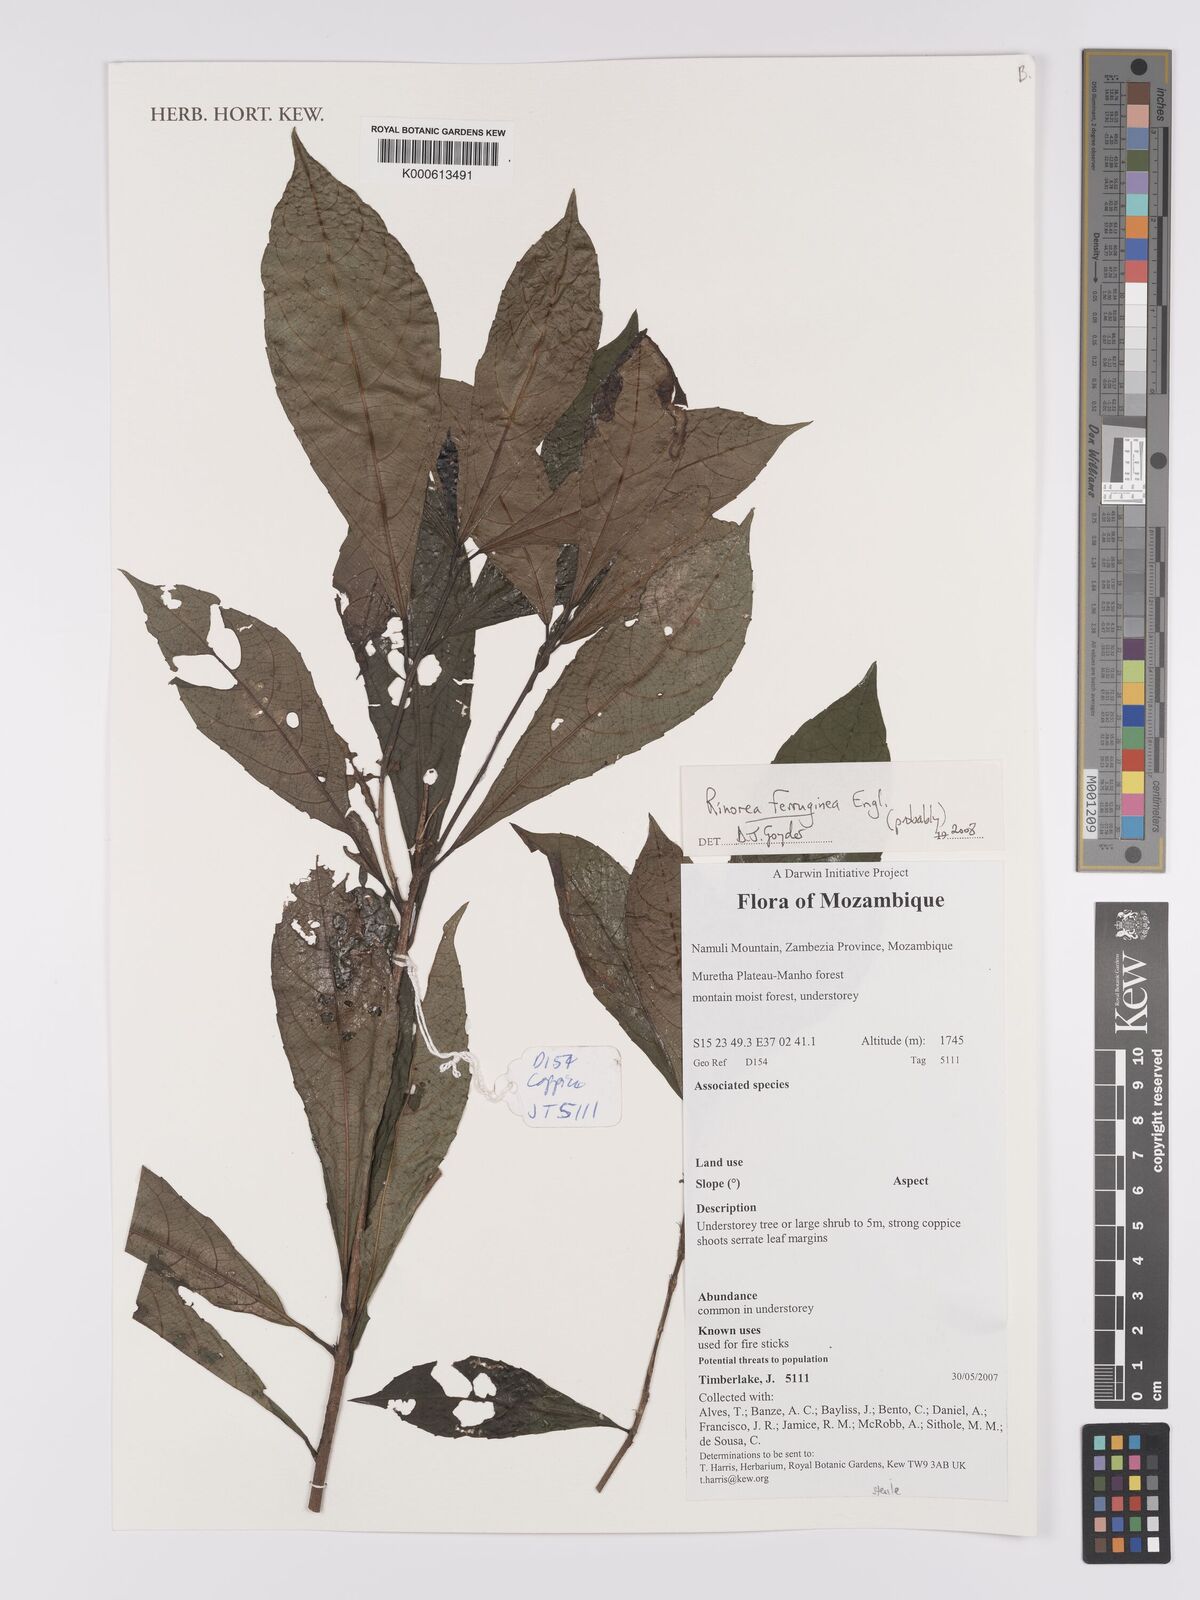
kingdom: Plantae
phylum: Tracheophyta
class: Magnoliopsida
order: Malpighiales
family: Violaceae
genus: Rinorea
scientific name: Rinorea ferruginea
